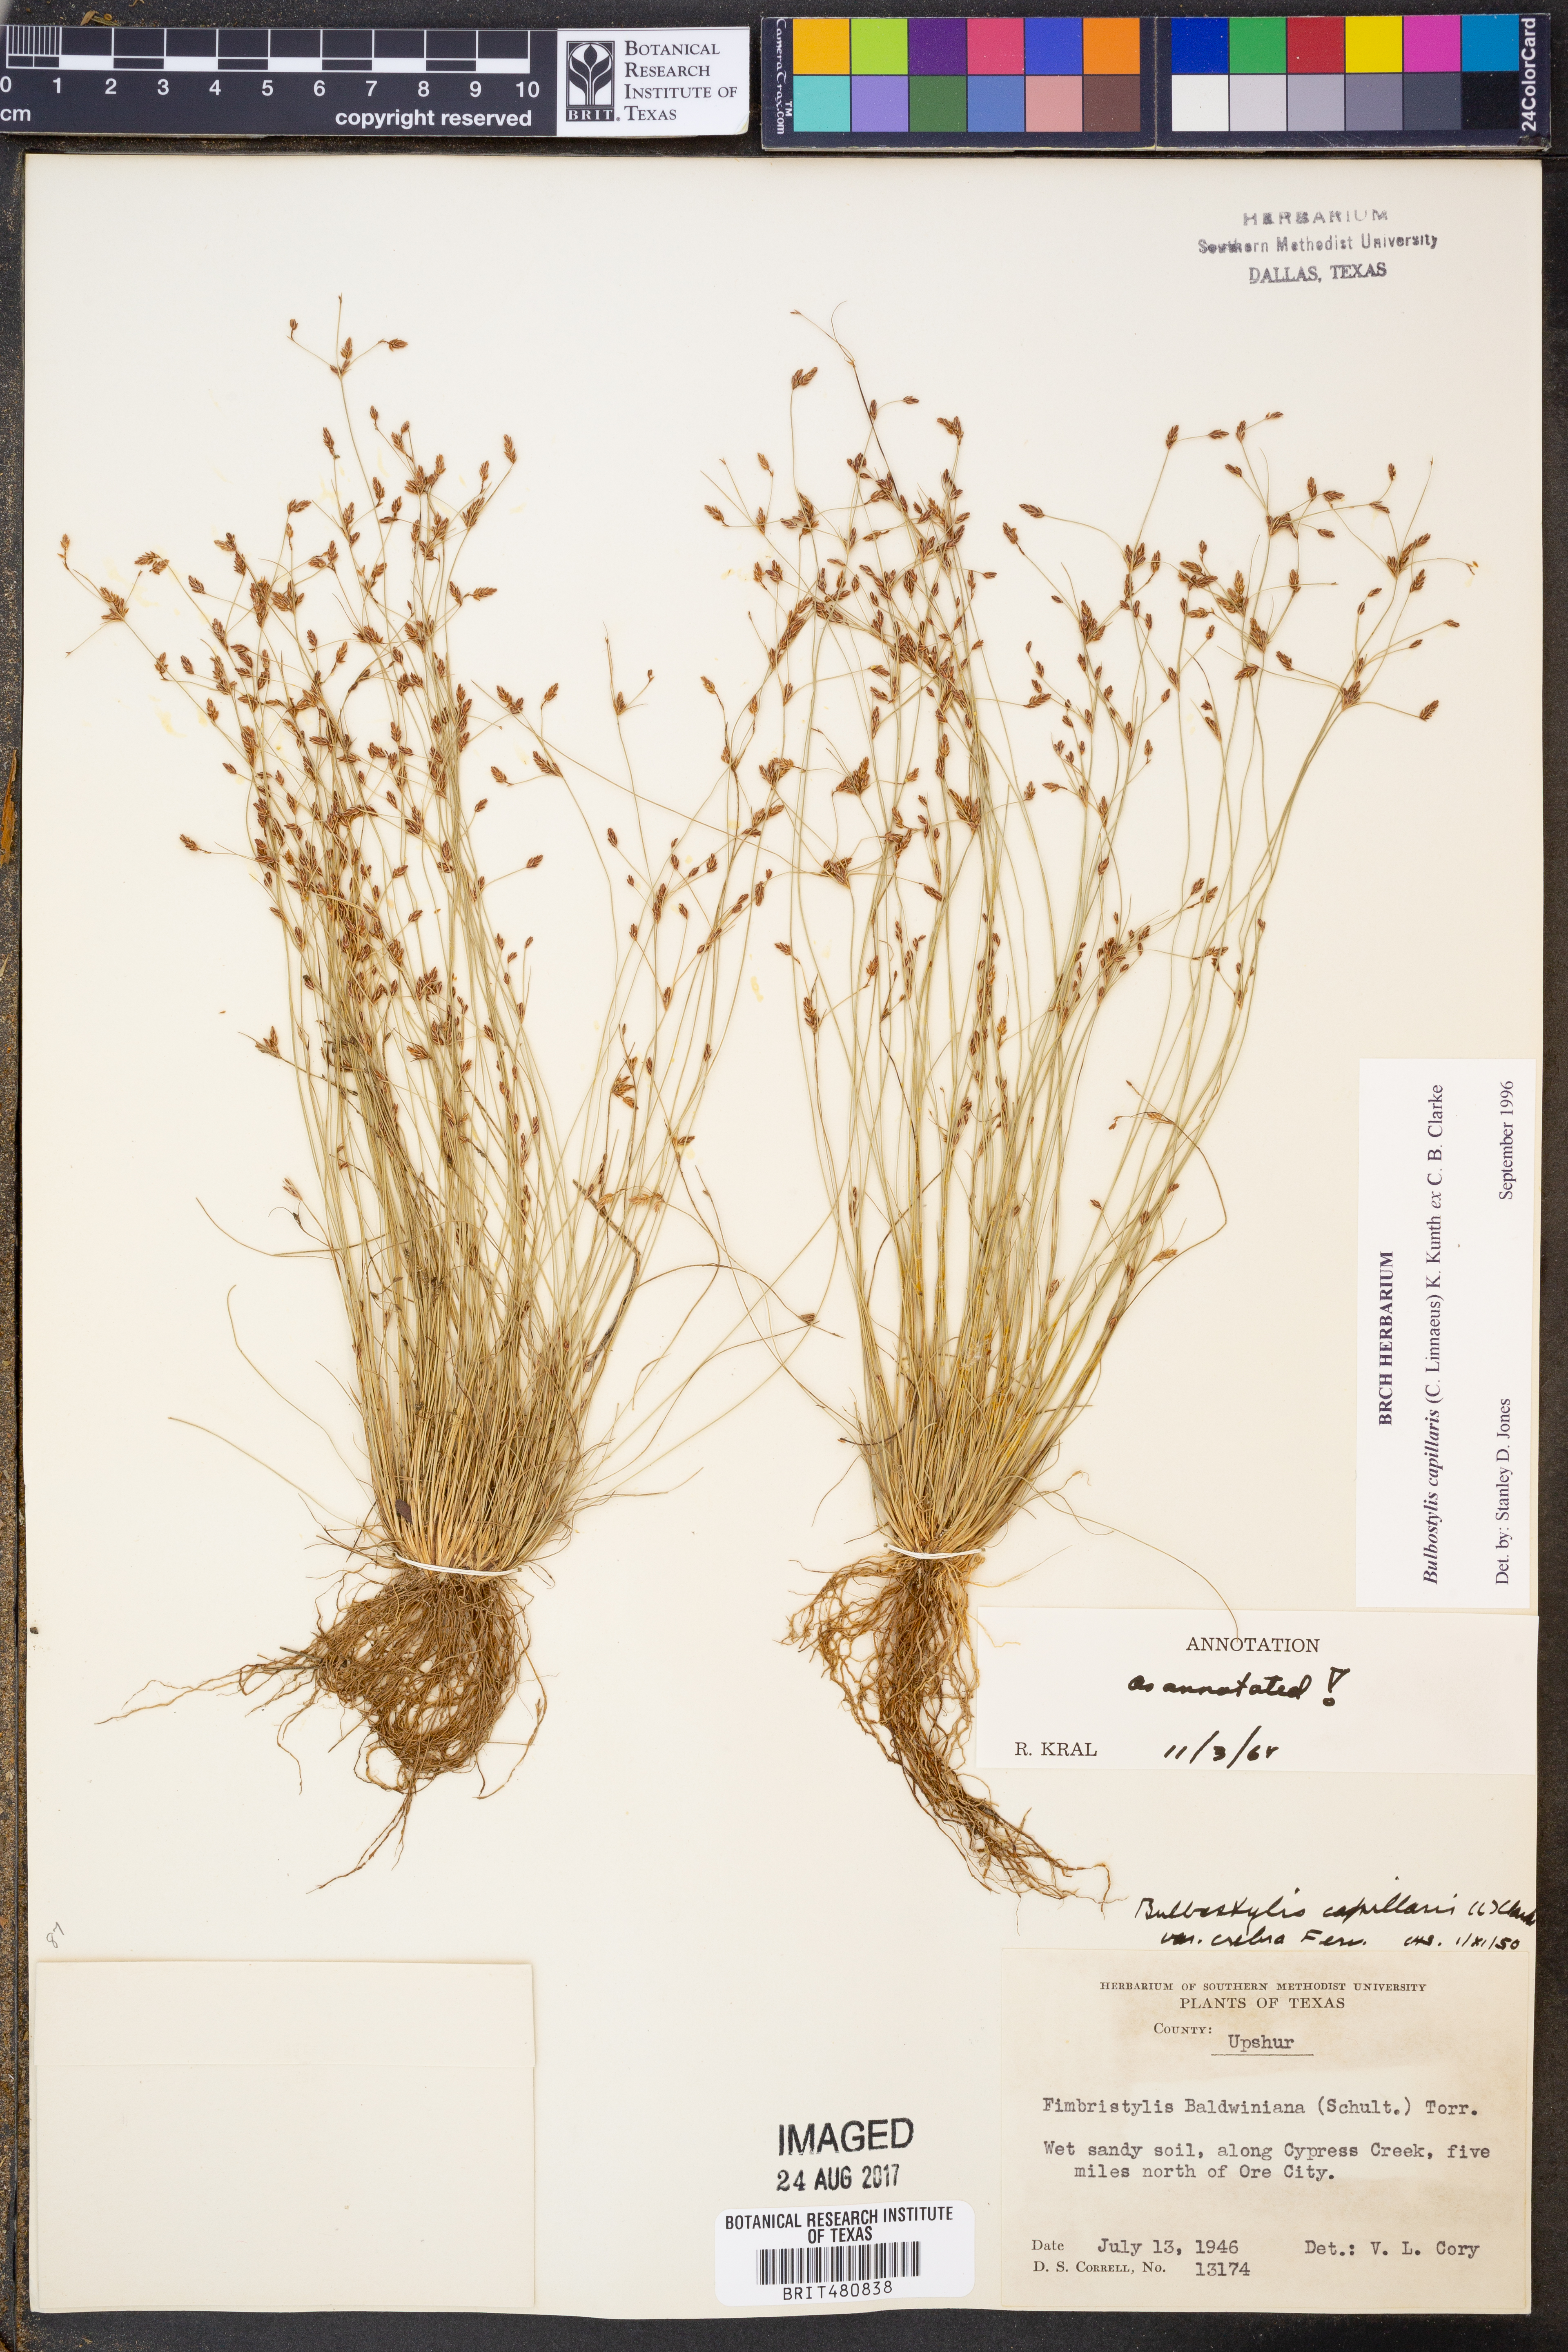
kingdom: Plantae
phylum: Tracheophyta
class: Liliopsida
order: Poales
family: Cyperaceae
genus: Bulbostylis
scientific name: Bulbostylis capillaris
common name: Densetuft hairsedge
